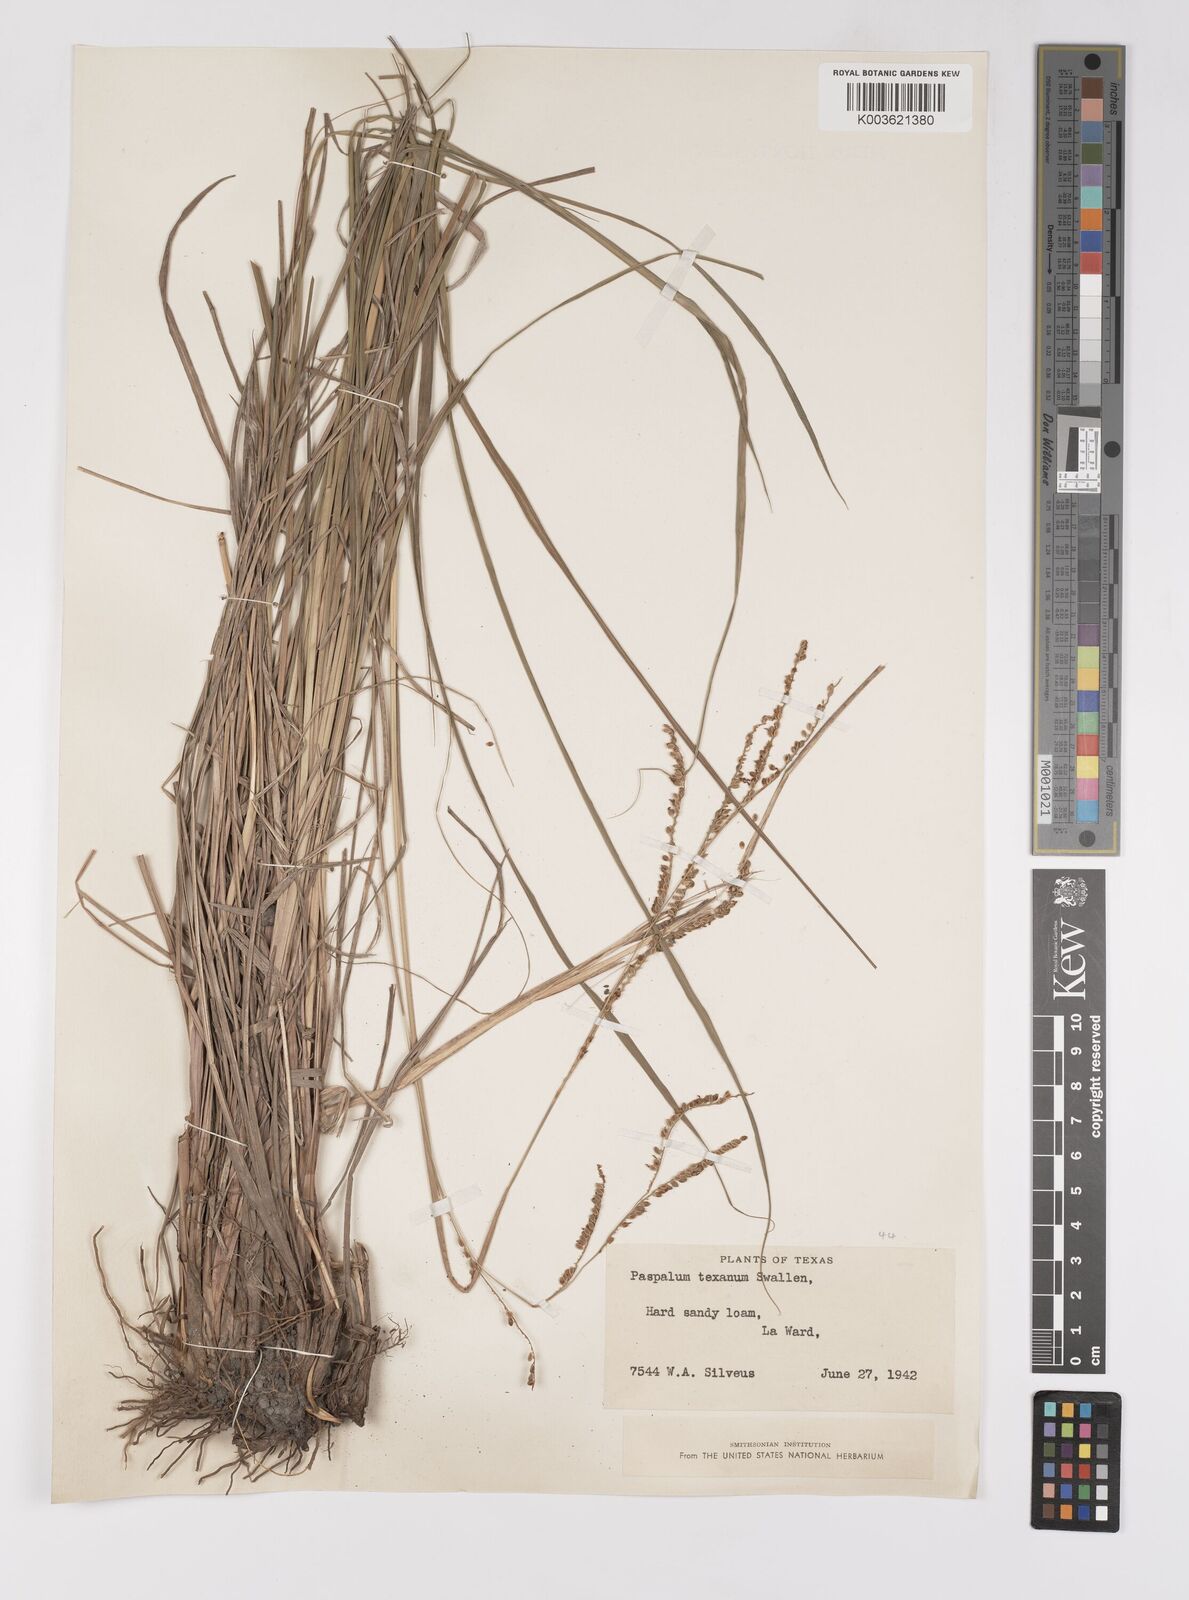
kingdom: Plantae
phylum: Tracheophyta
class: Liliopsida
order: Poales
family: Poaceae
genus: Paspalum
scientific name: Paspalum plicatulum
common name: Top paspalum
